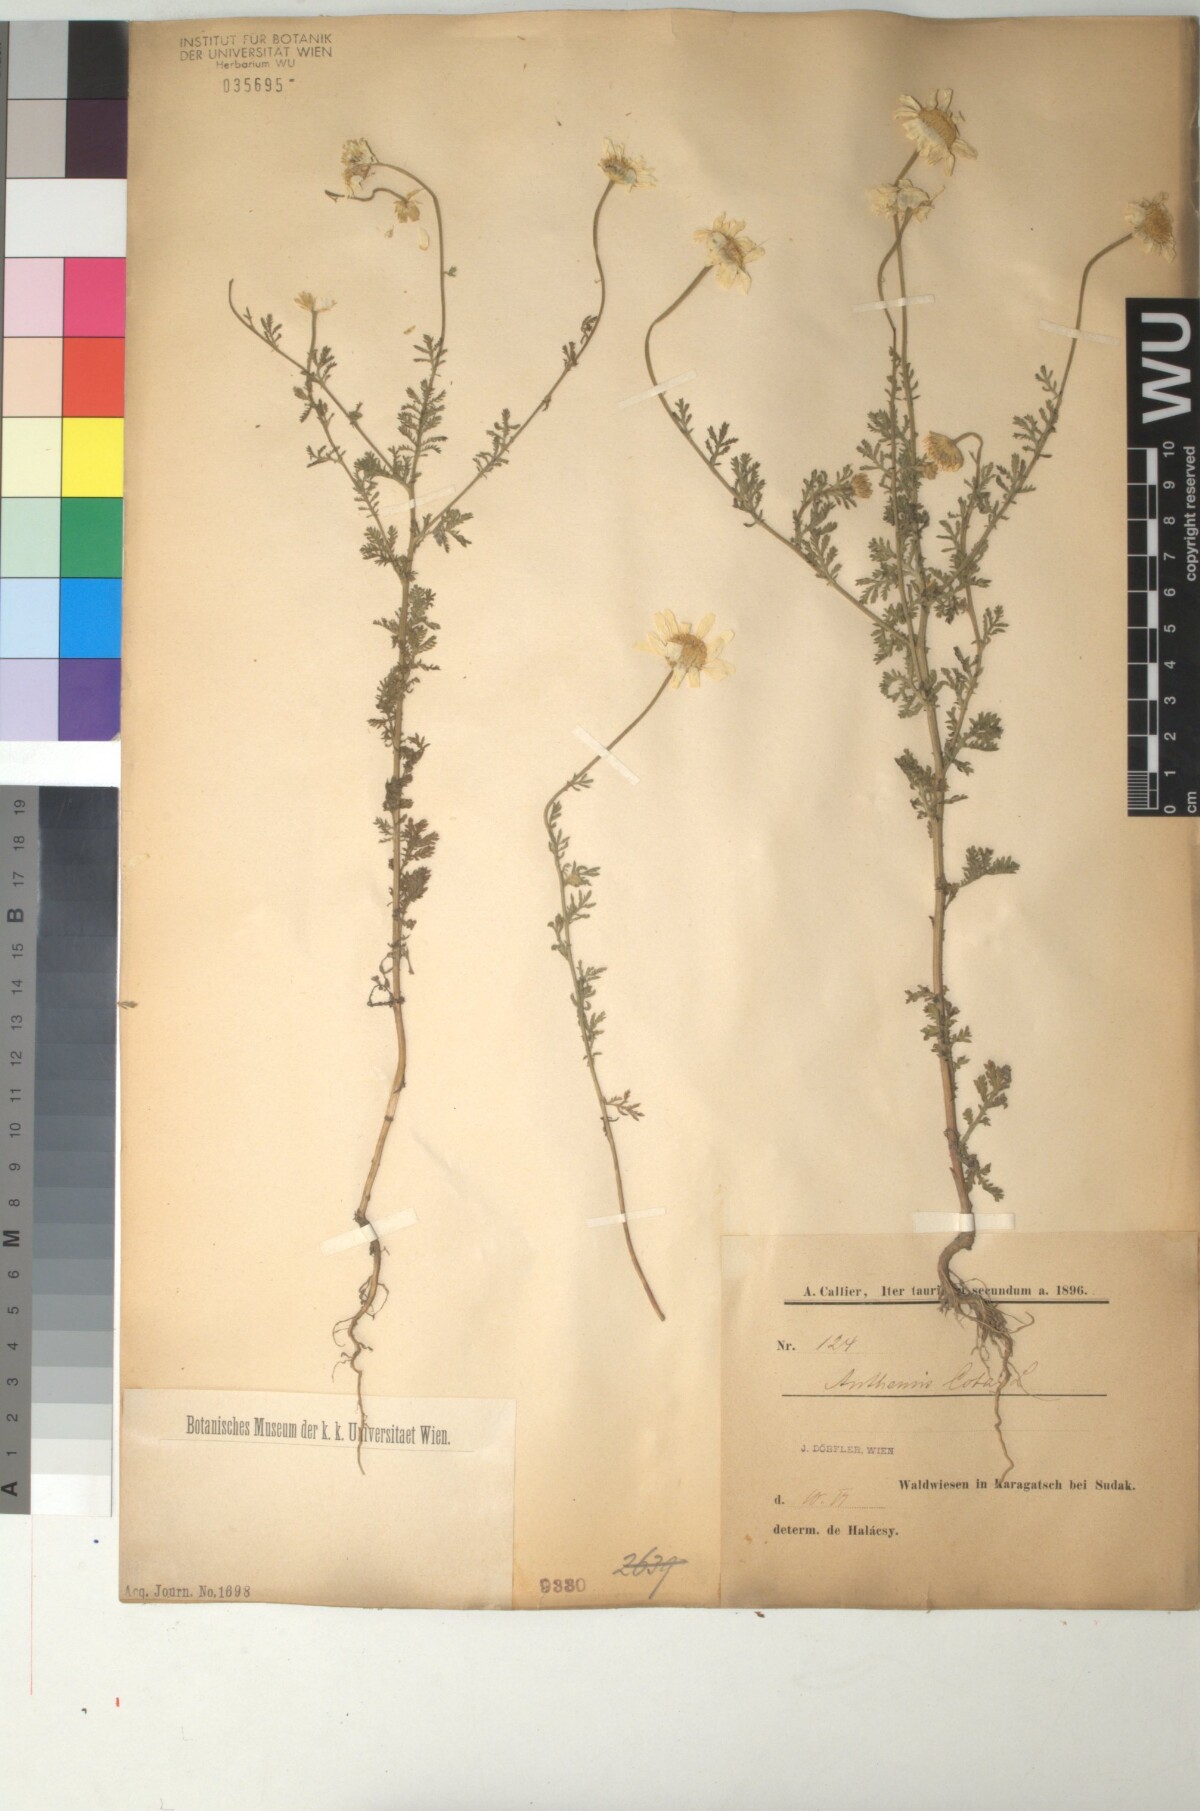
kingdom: Plantae
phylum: Tracheophyta
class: Magnoliopsida
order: Asterales
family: Asteraceae
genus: Cota
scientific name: Cota altissima
